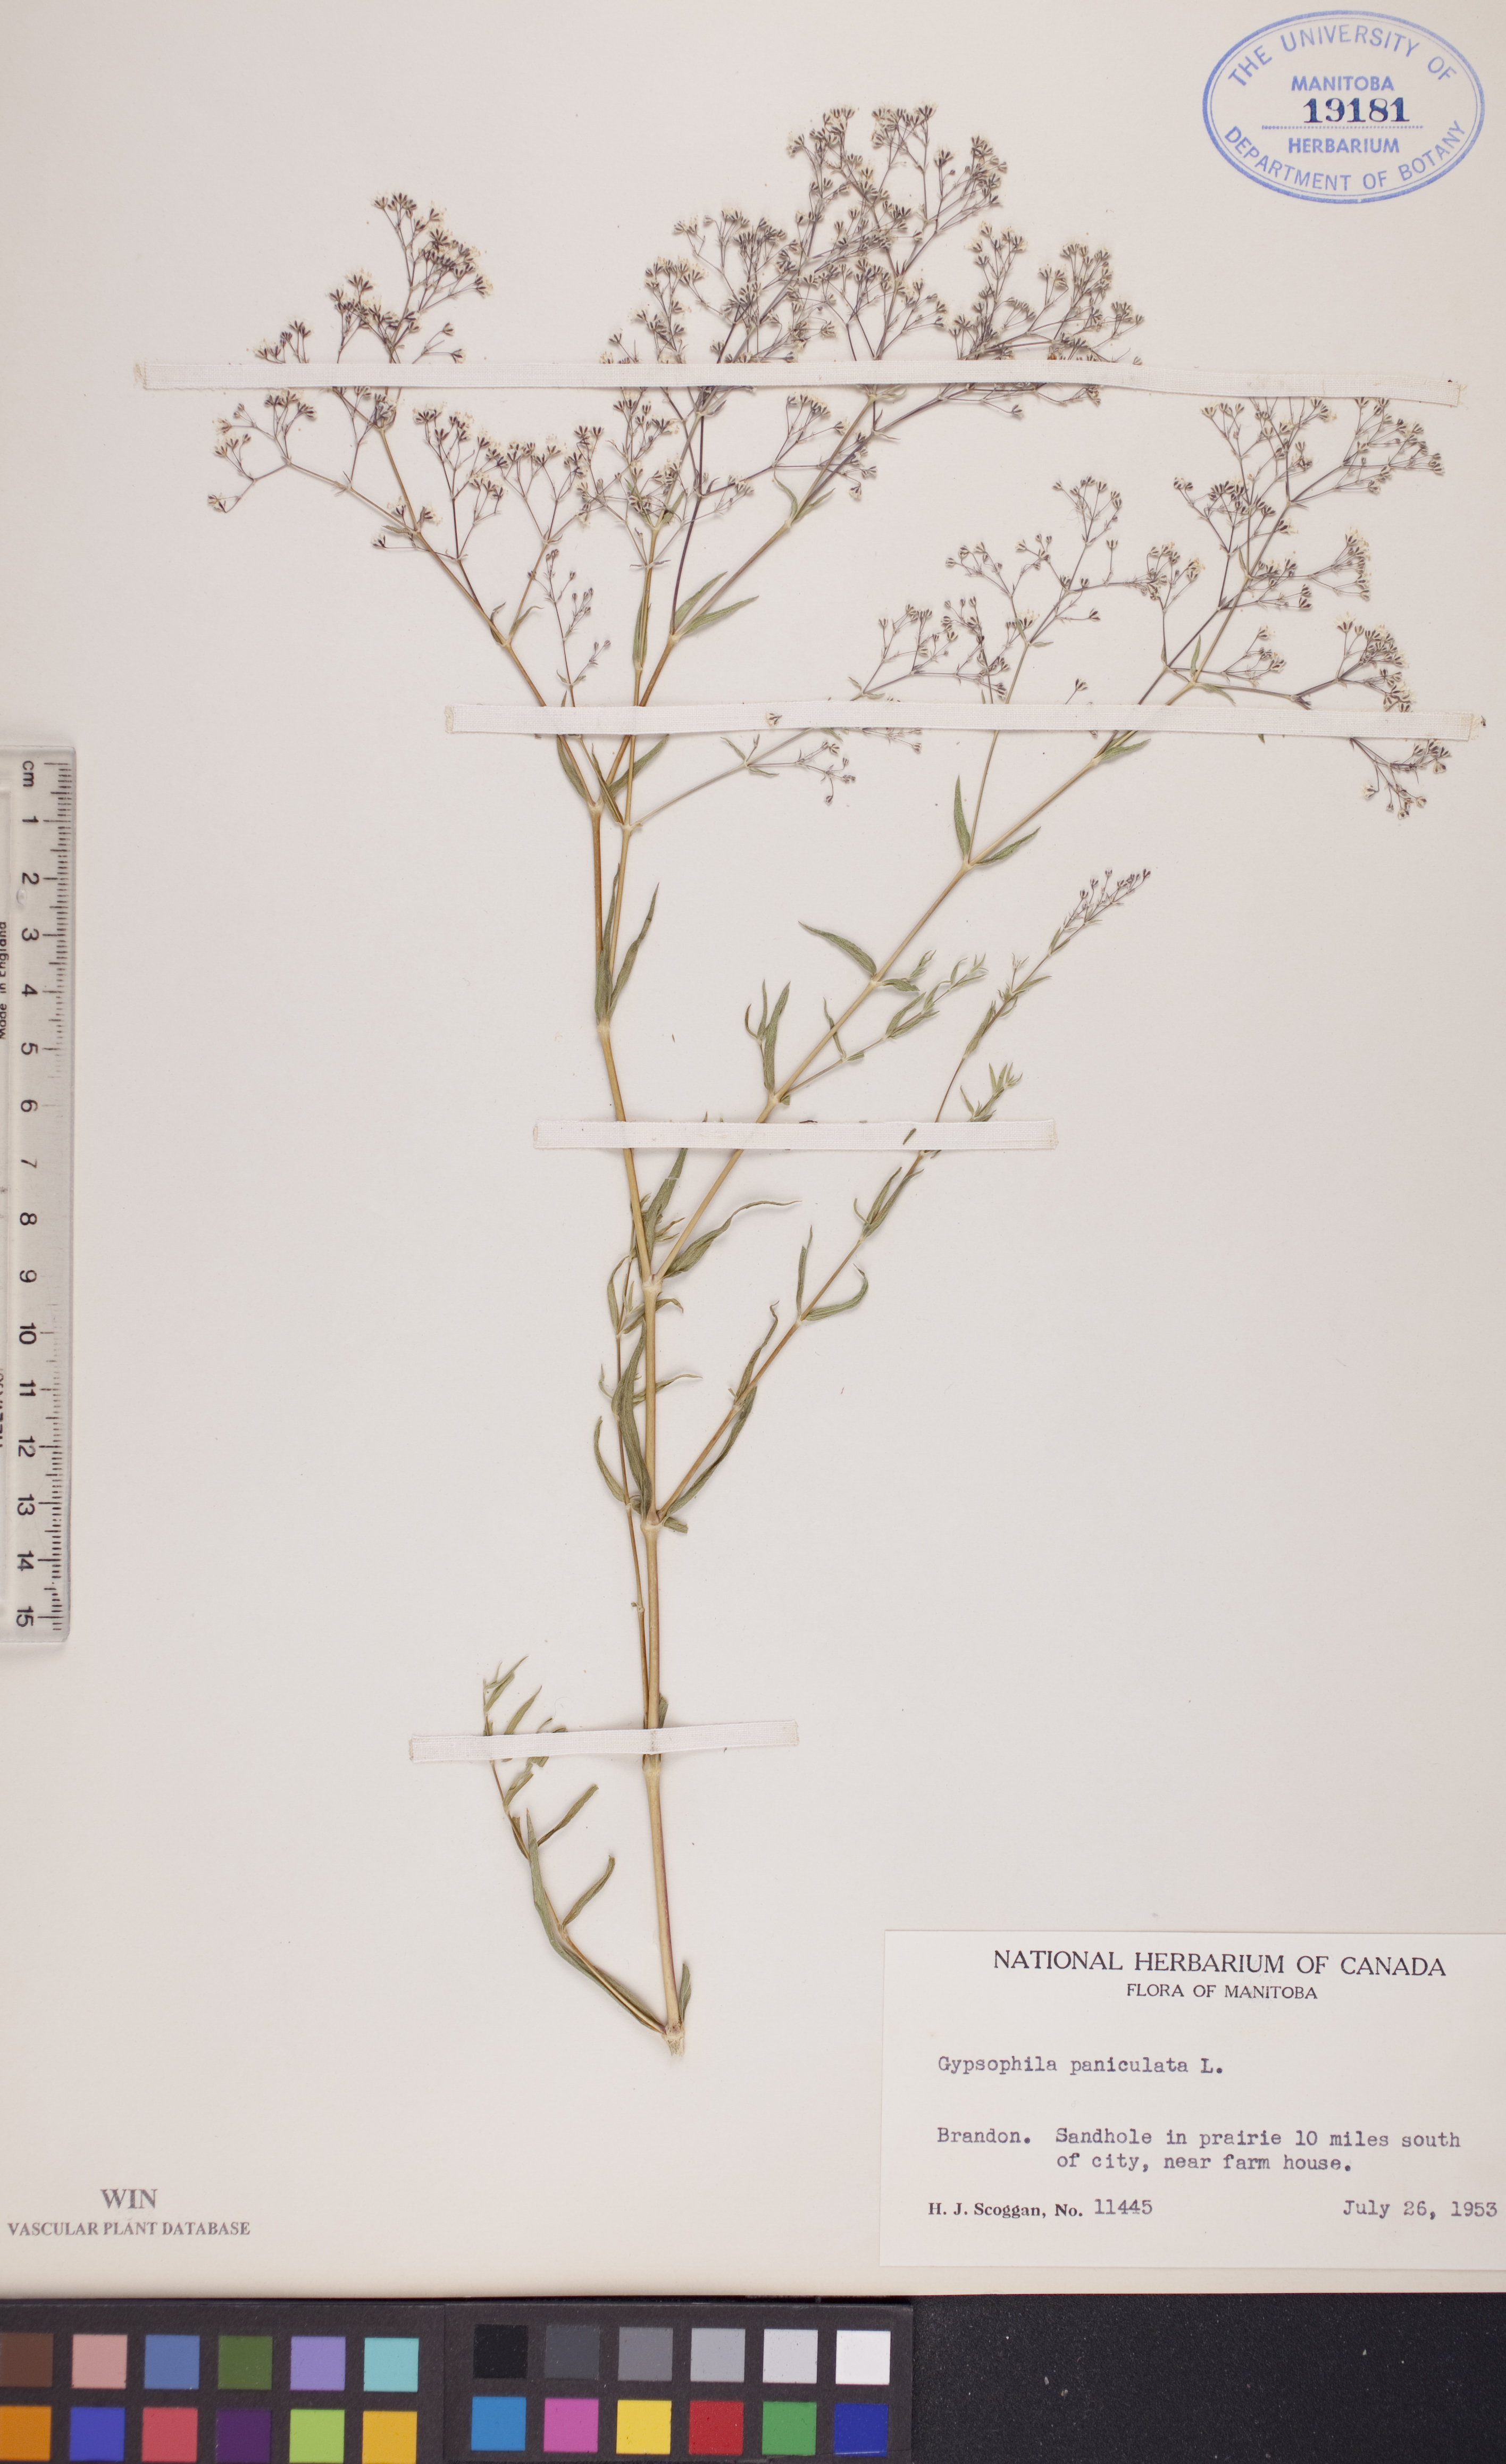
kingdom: Plantae
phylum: Tracheophyta
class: Magnoliopsida
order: Caryophyllales
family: Caryophyllaceae
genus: Gypsophila
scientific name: Gypsophila paniculata
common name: Baby's-breath
